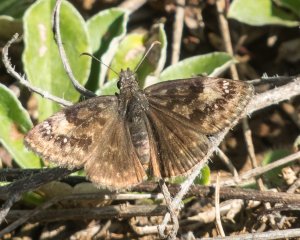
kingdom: Animalia
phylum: Arthropoda
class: Insecta
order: Lepidoptera
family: Hesperiidae
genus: Gesta
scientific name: Gesta
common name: Columbine Duskywing
